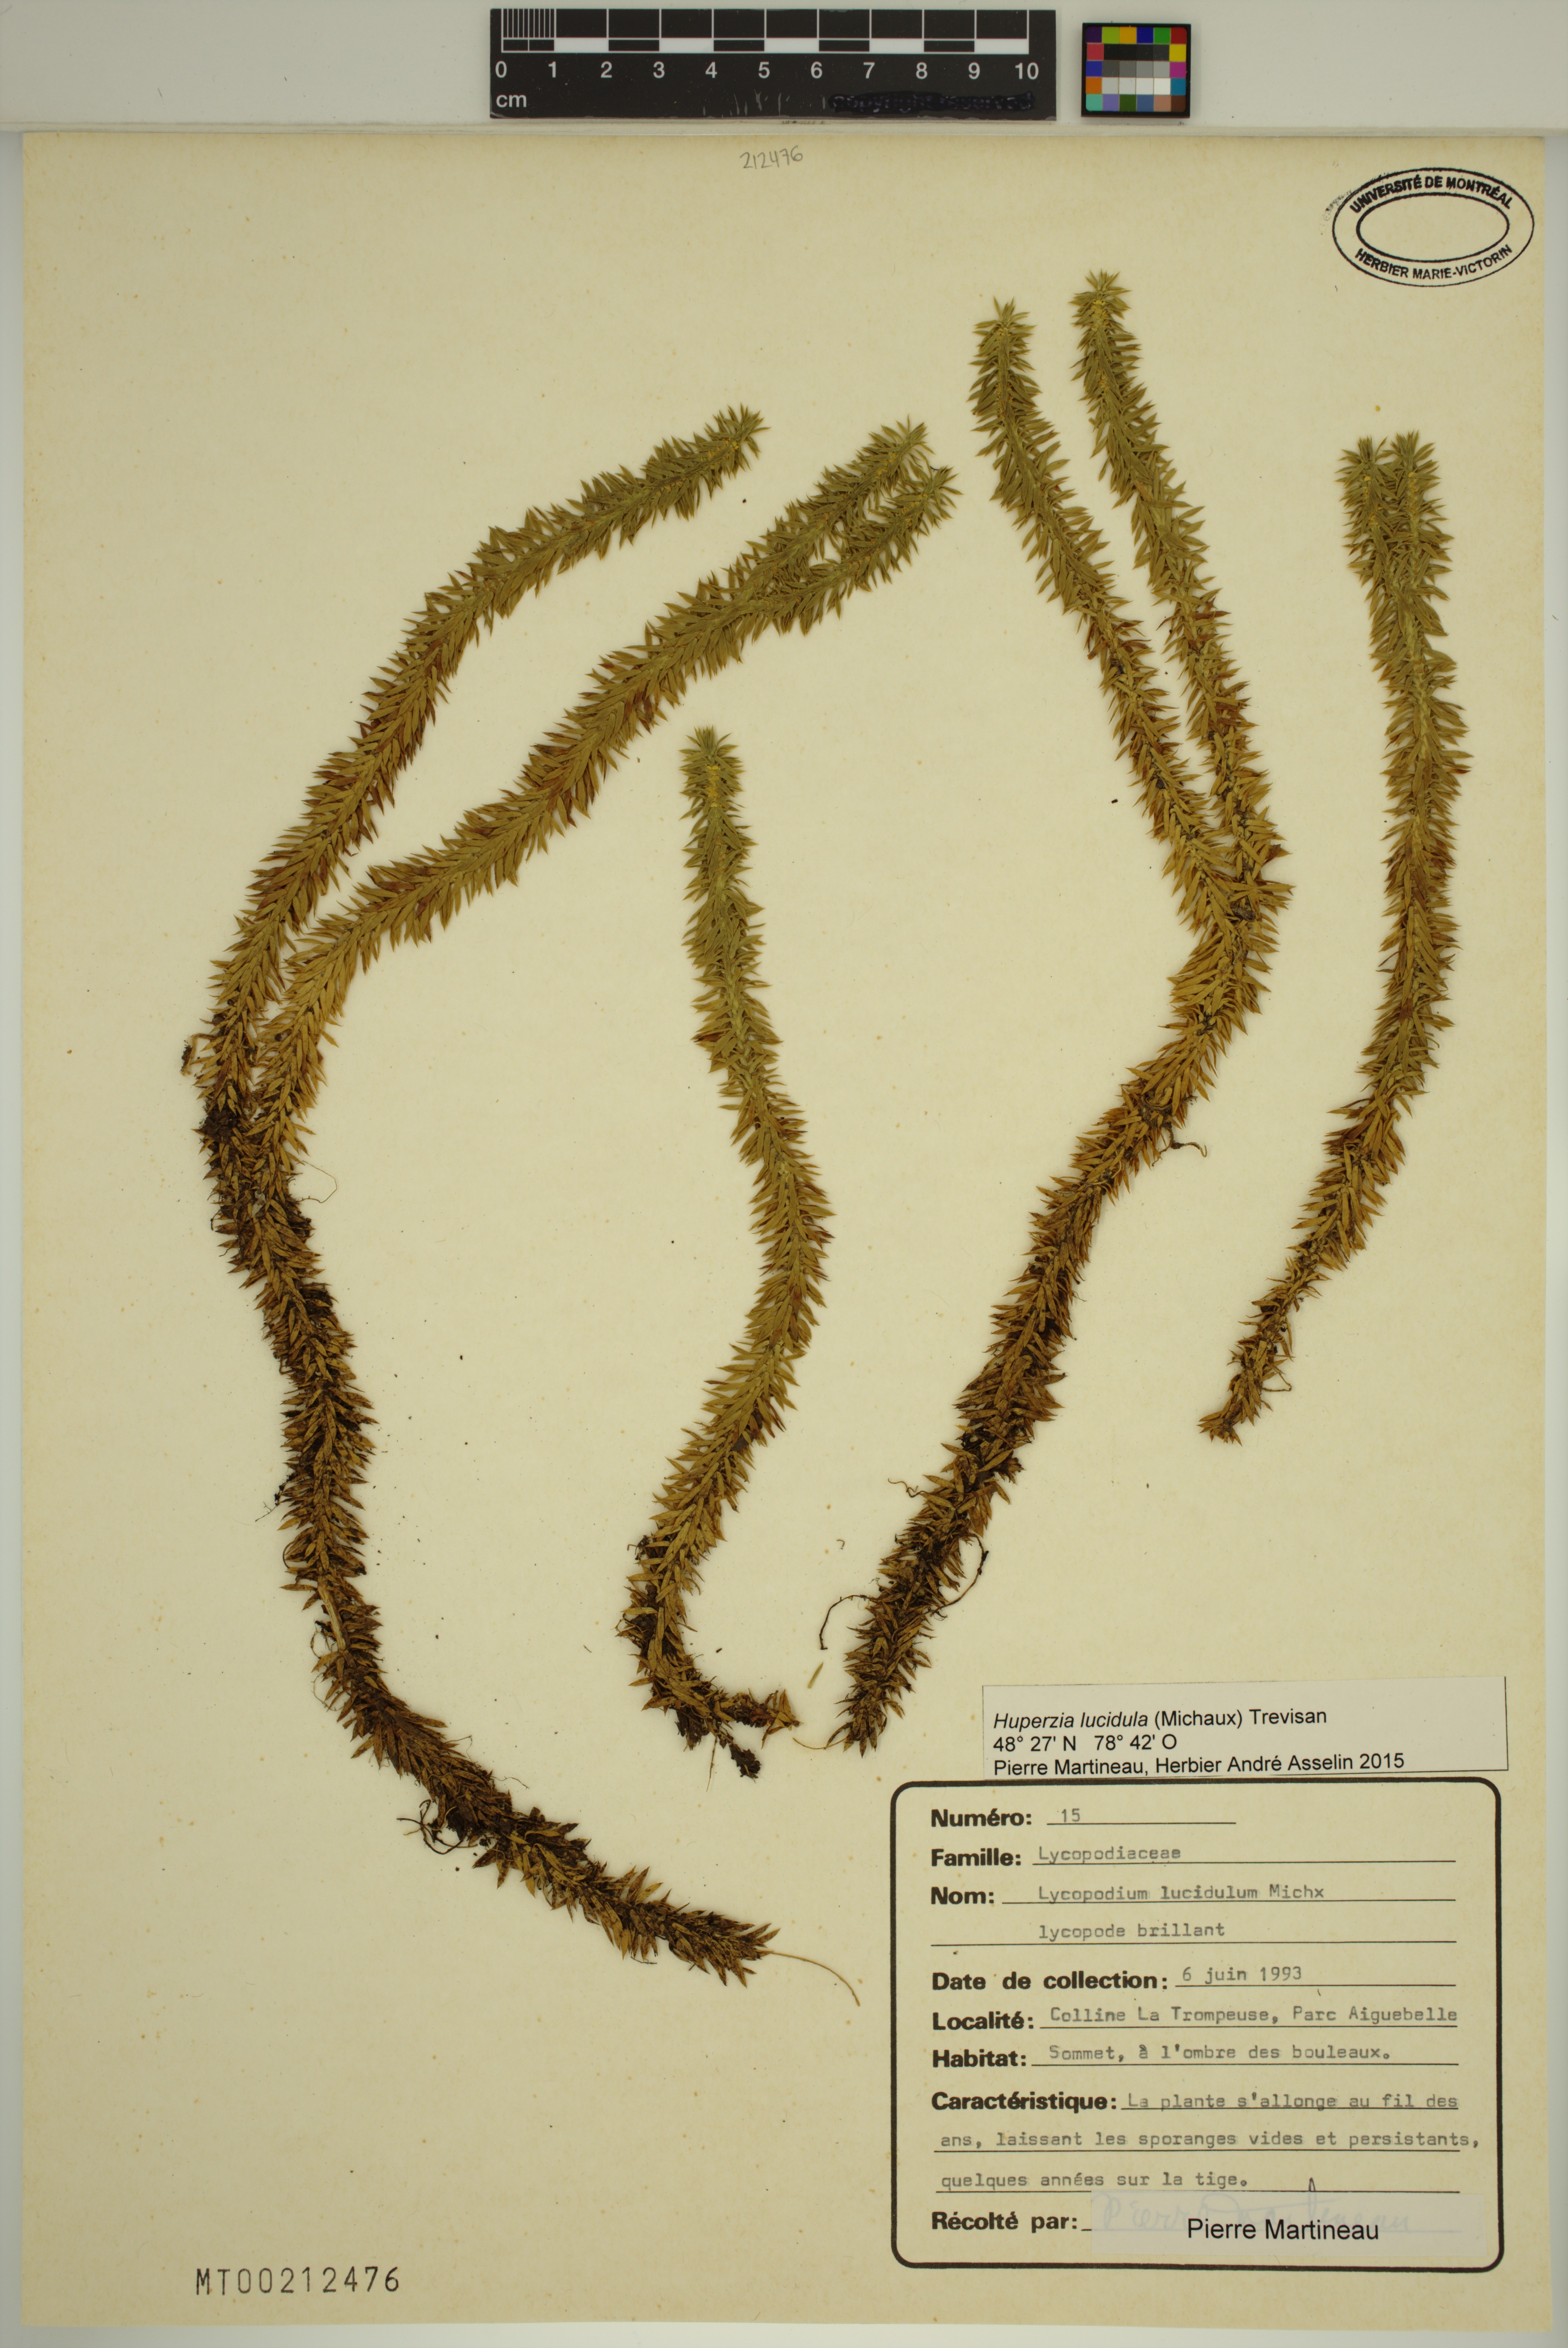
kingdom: Plantae
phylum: Tracheophyta
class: Lycopodiopsida
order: Lycopodiales
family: Lycopodiaceae
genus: Huperzia
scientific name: Huperzia lucidula
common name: Shining clubmoss
